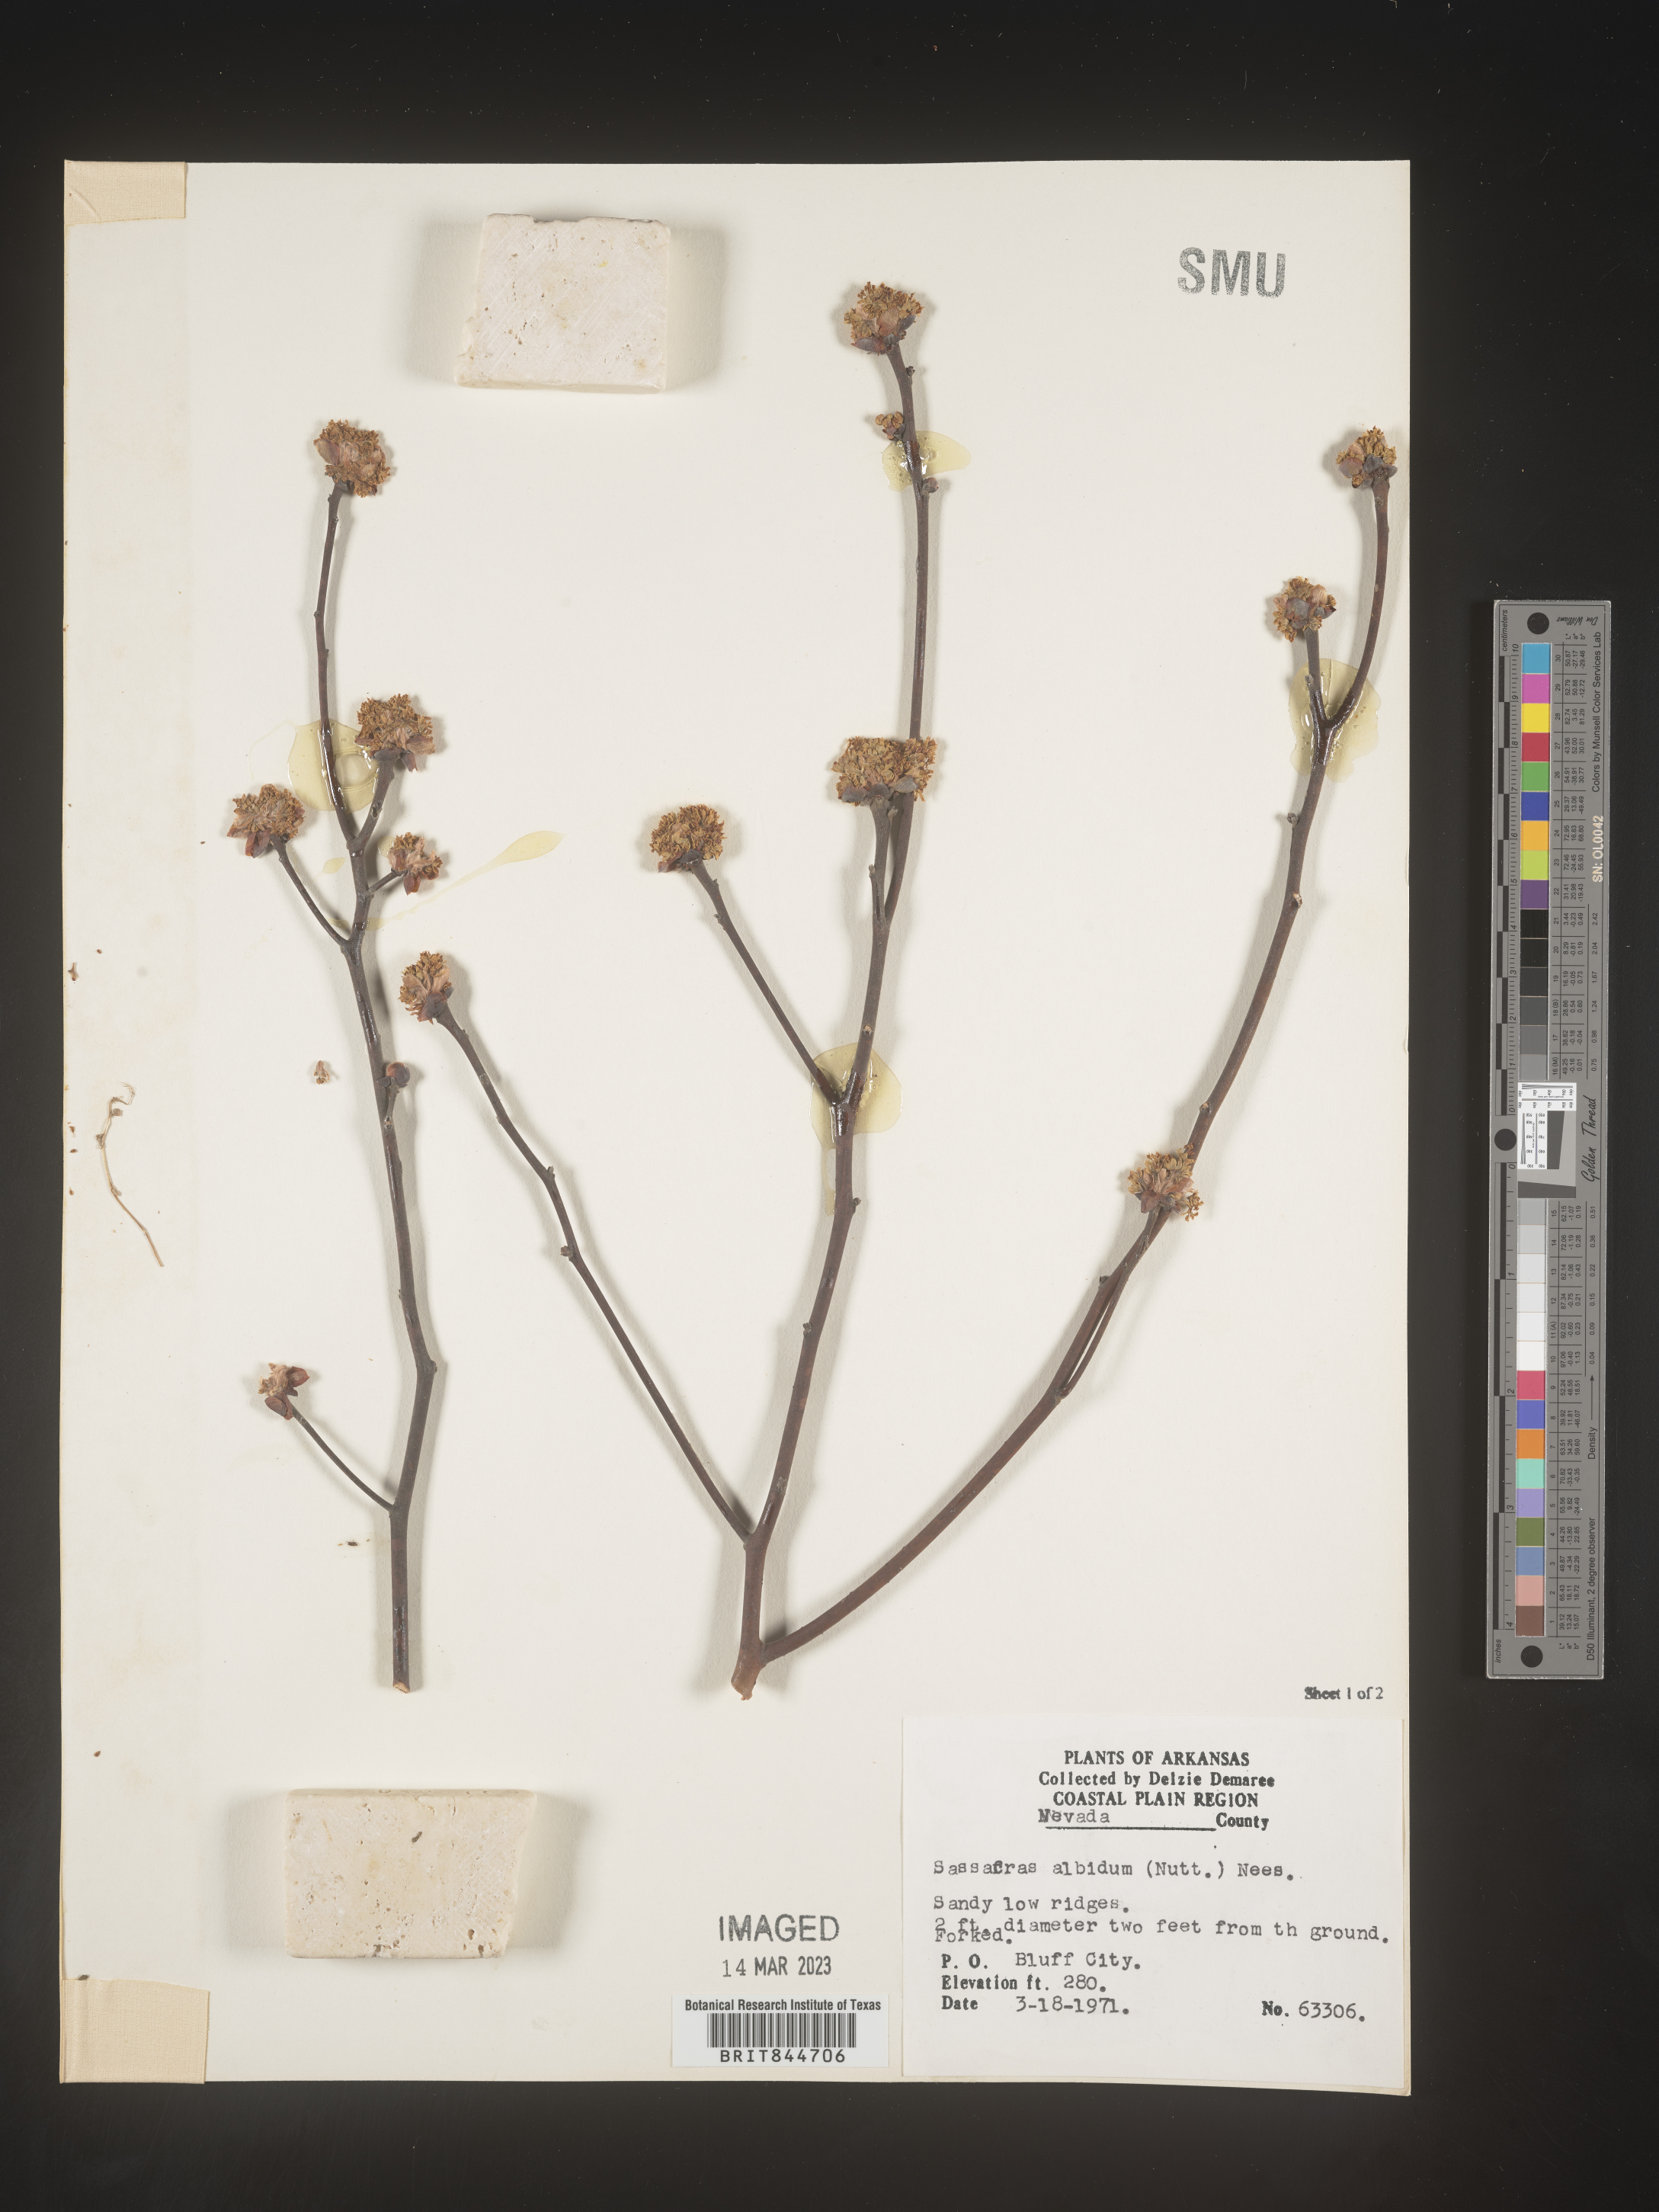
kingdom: Plantae
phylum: Tracheophyta
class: Magnoliopsida
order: Laurales
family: Lauraceae
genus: Sassafras
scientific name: Sassafras albidum
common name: Sassafras
